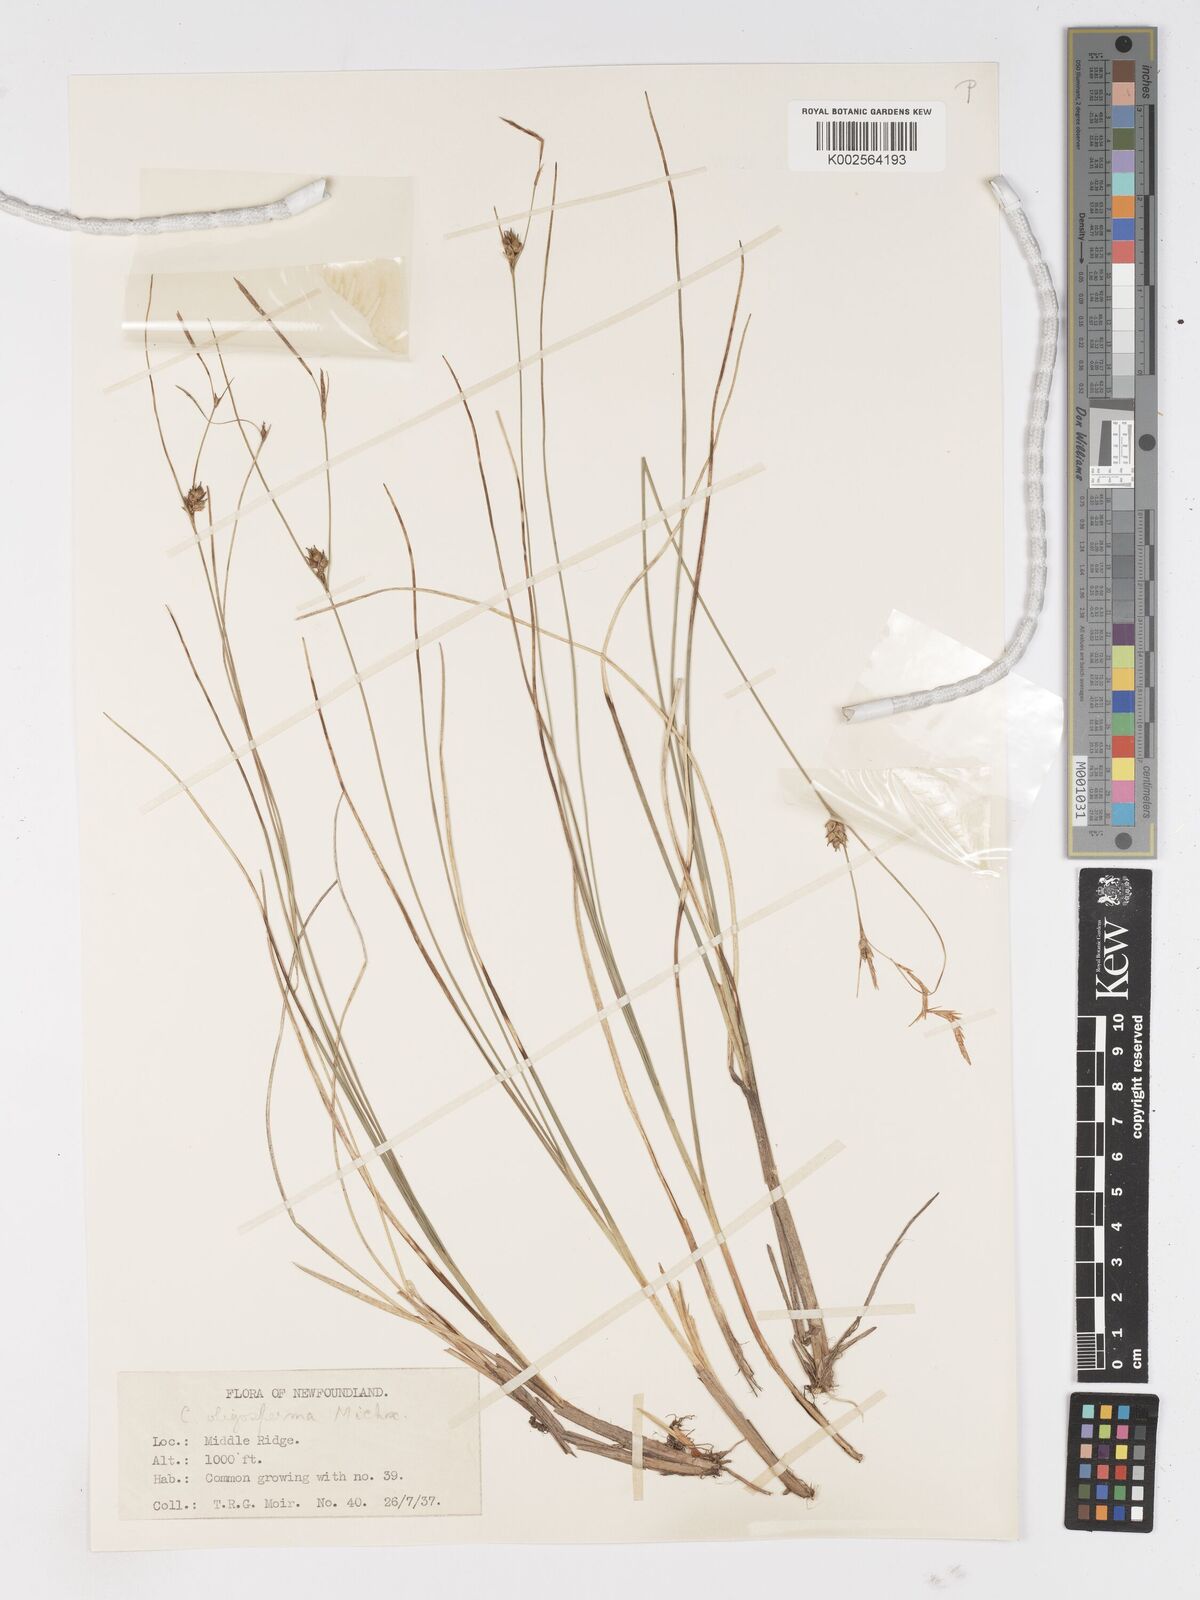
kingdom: Plantae
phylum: Tracheophyta
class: Liliopsida
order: Poales
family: Cyperaceae
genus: Carex
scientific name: Carex oligosperma
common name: Few-seed sedge
